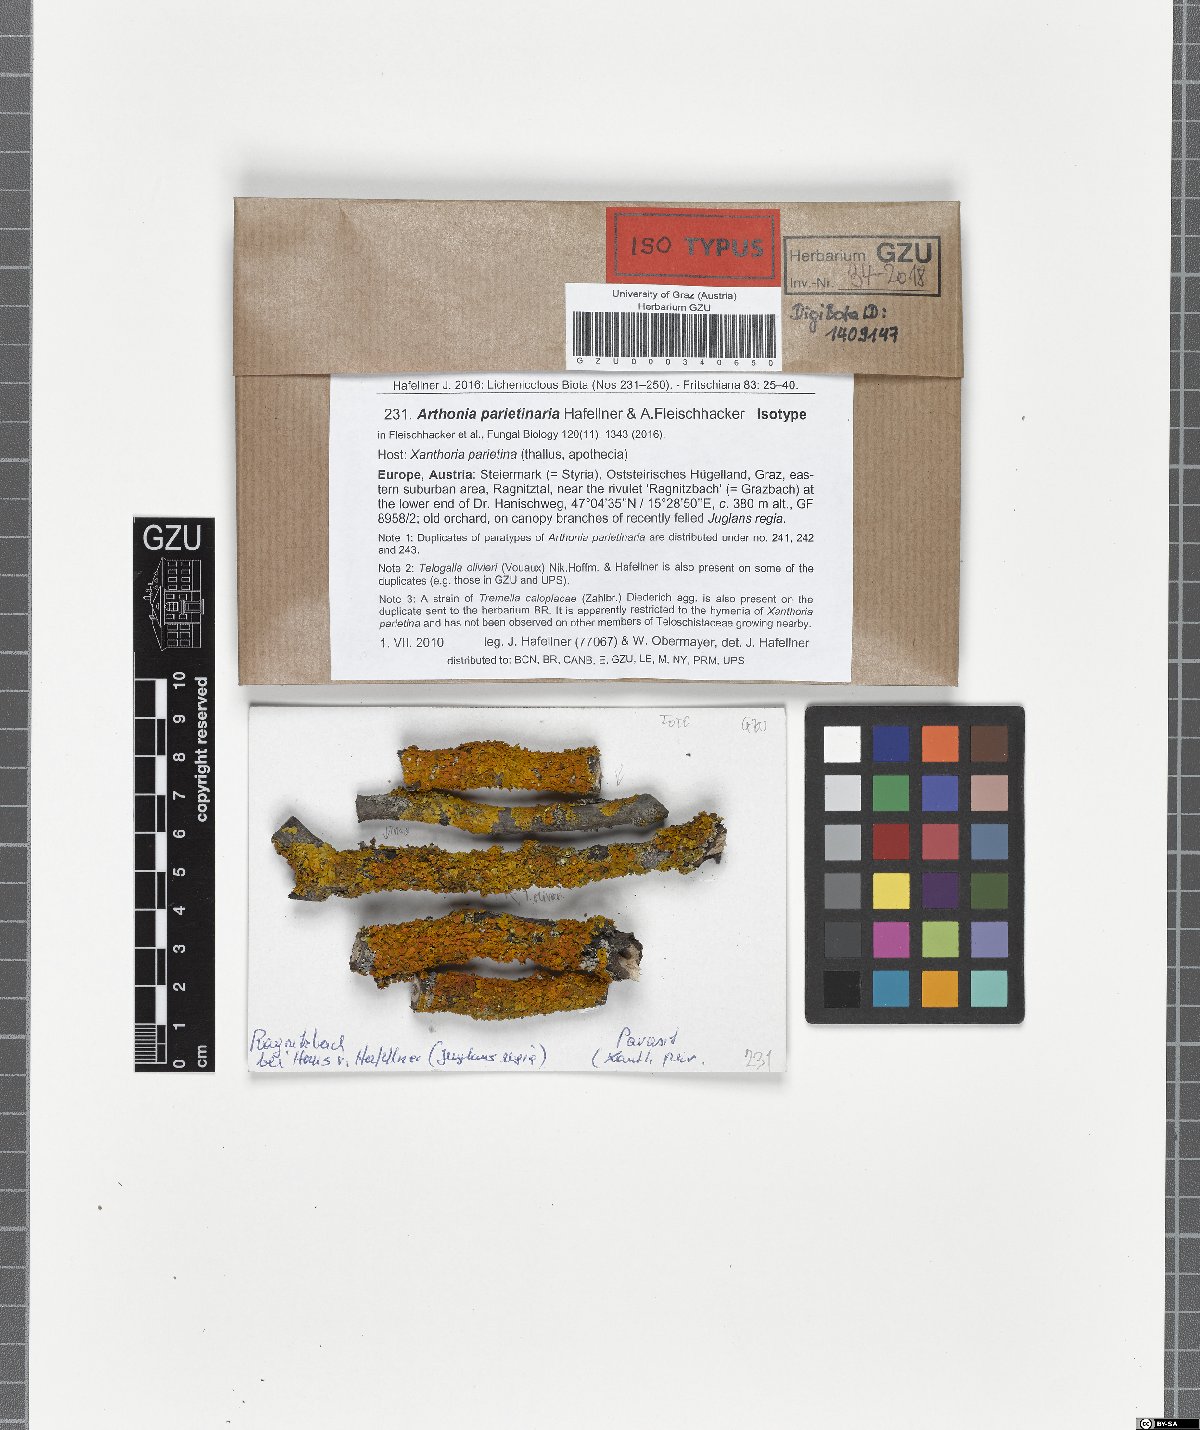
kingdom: Fungi
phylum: Ascomycota
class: Arthoniomycetes
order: Arthoniales
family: Arthoniaceae
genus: Bryostigma
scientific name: Bryostigma parietinarium
